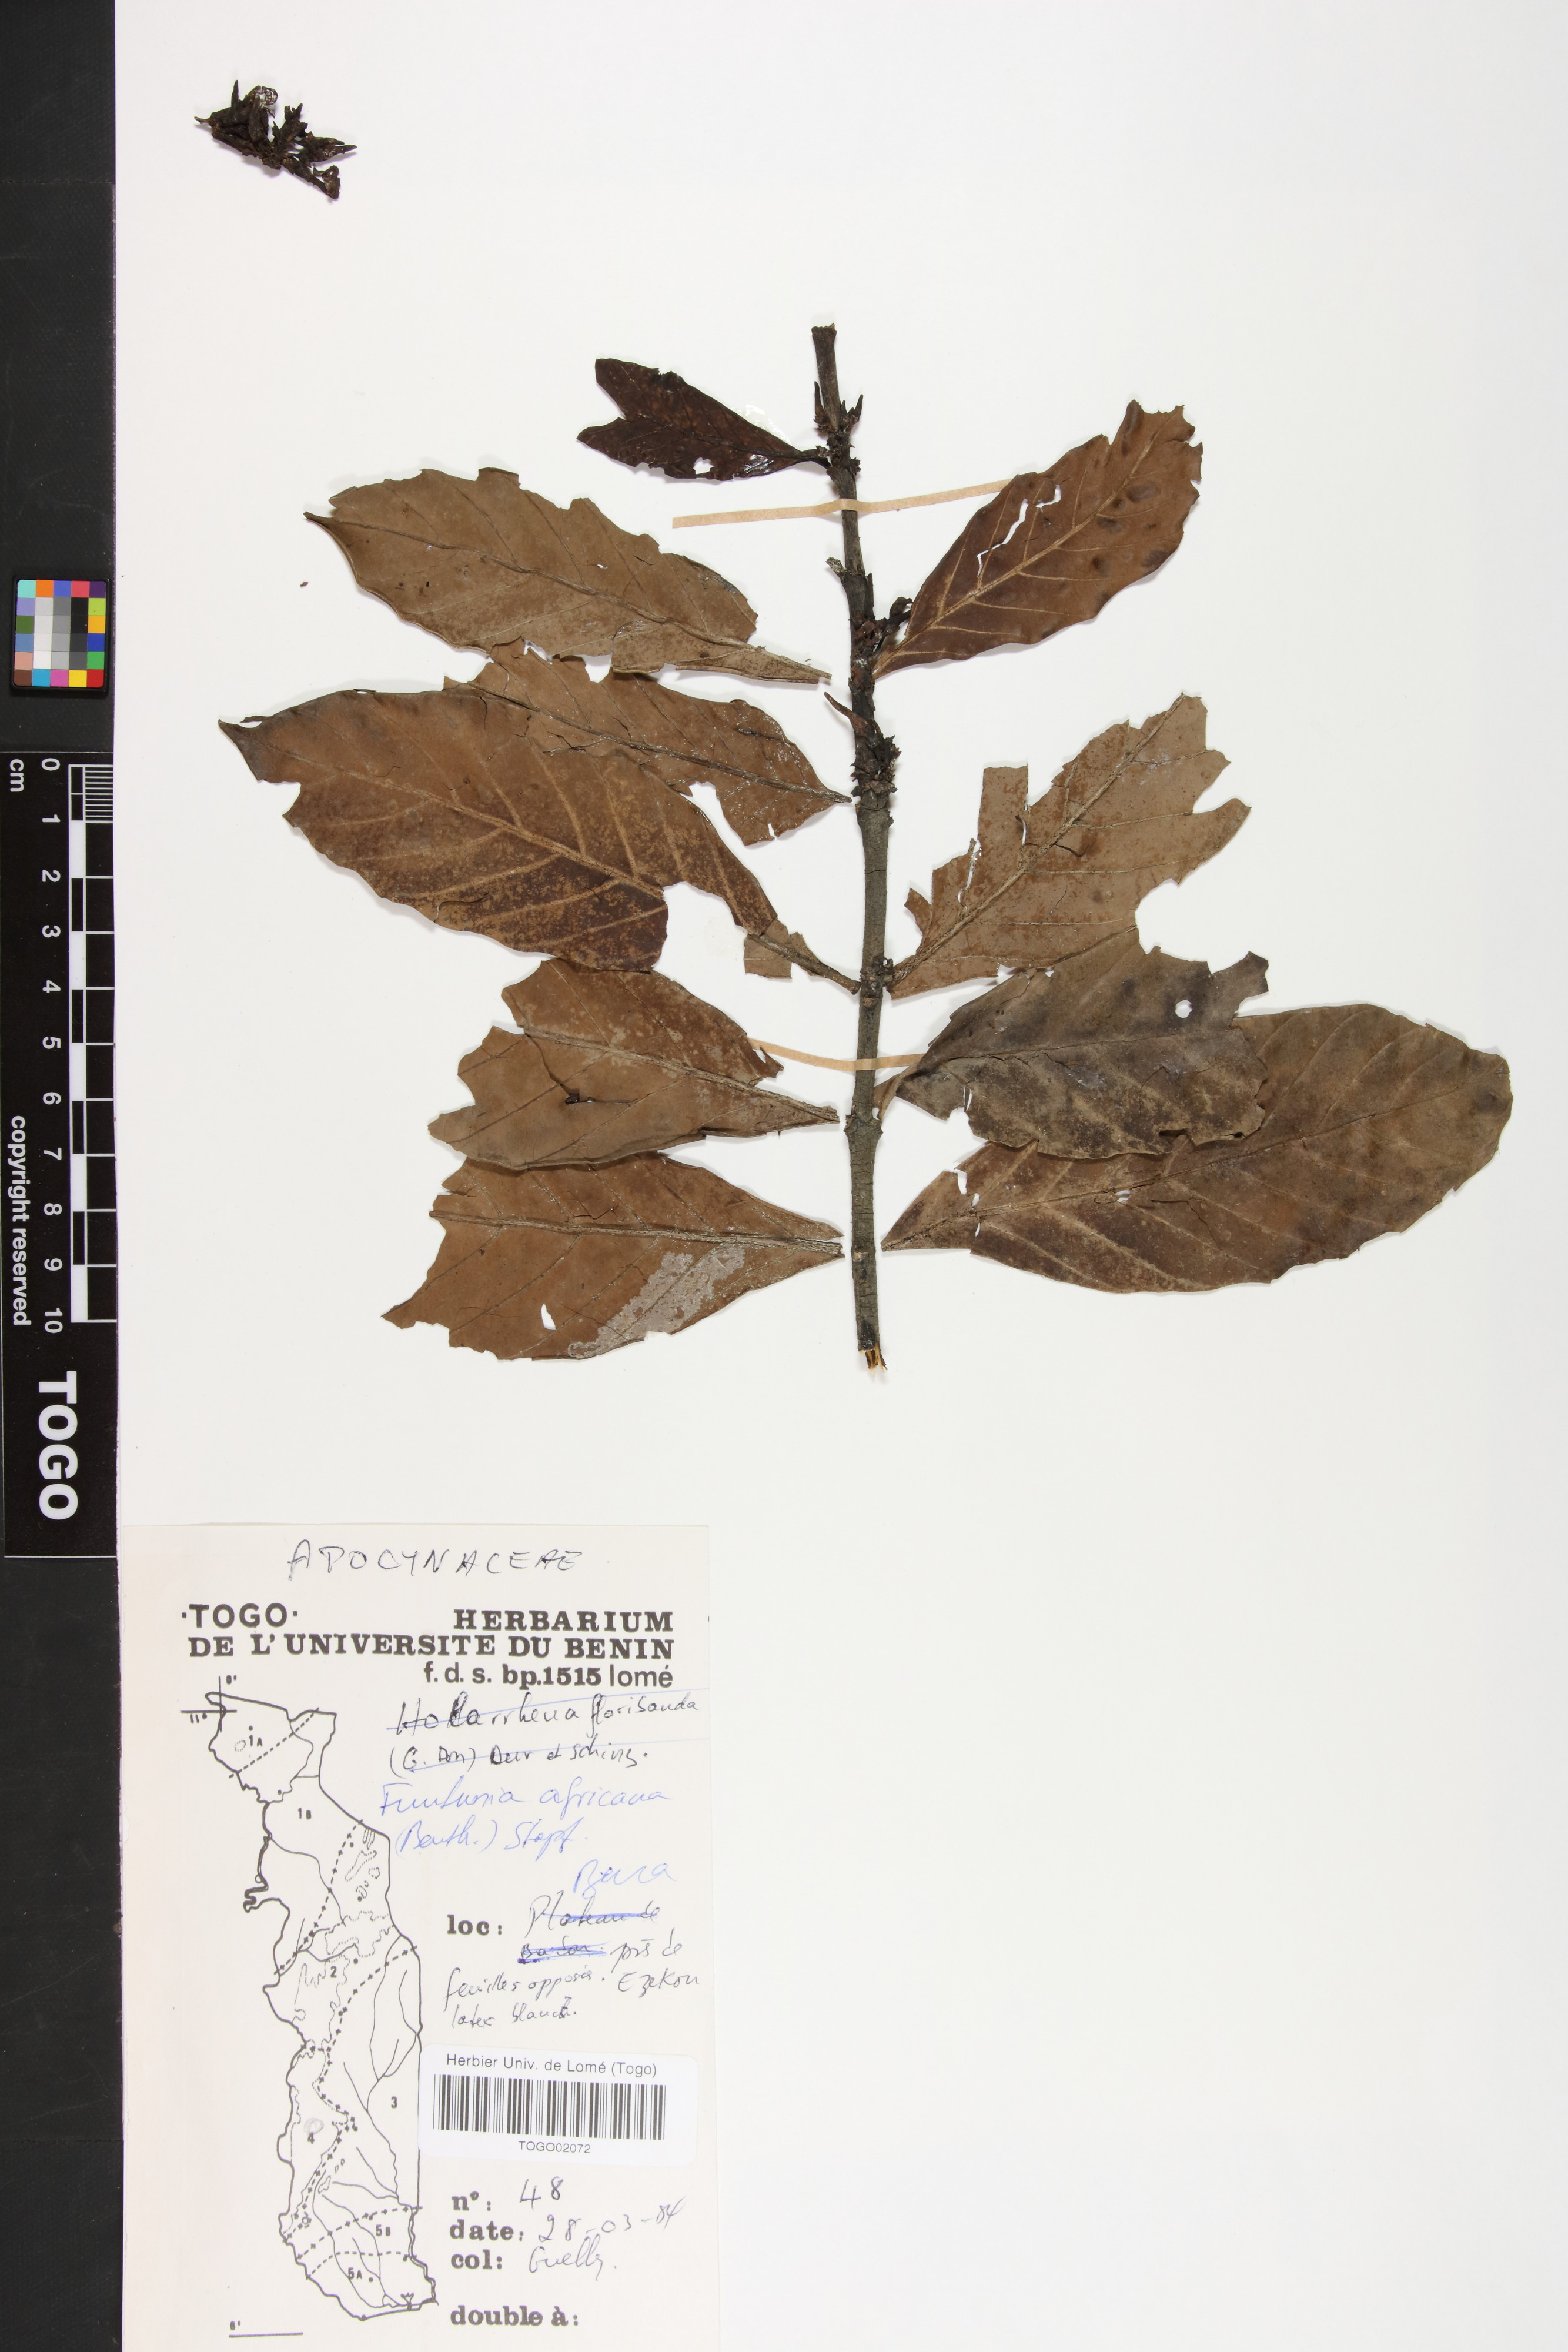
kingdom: Plantae
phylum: Tracheophyta
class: Magnoliopsida
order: Gentianales
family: Apocynaceae
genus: Funtumia
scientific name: Funtumia africana
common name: Lagos-rubber
